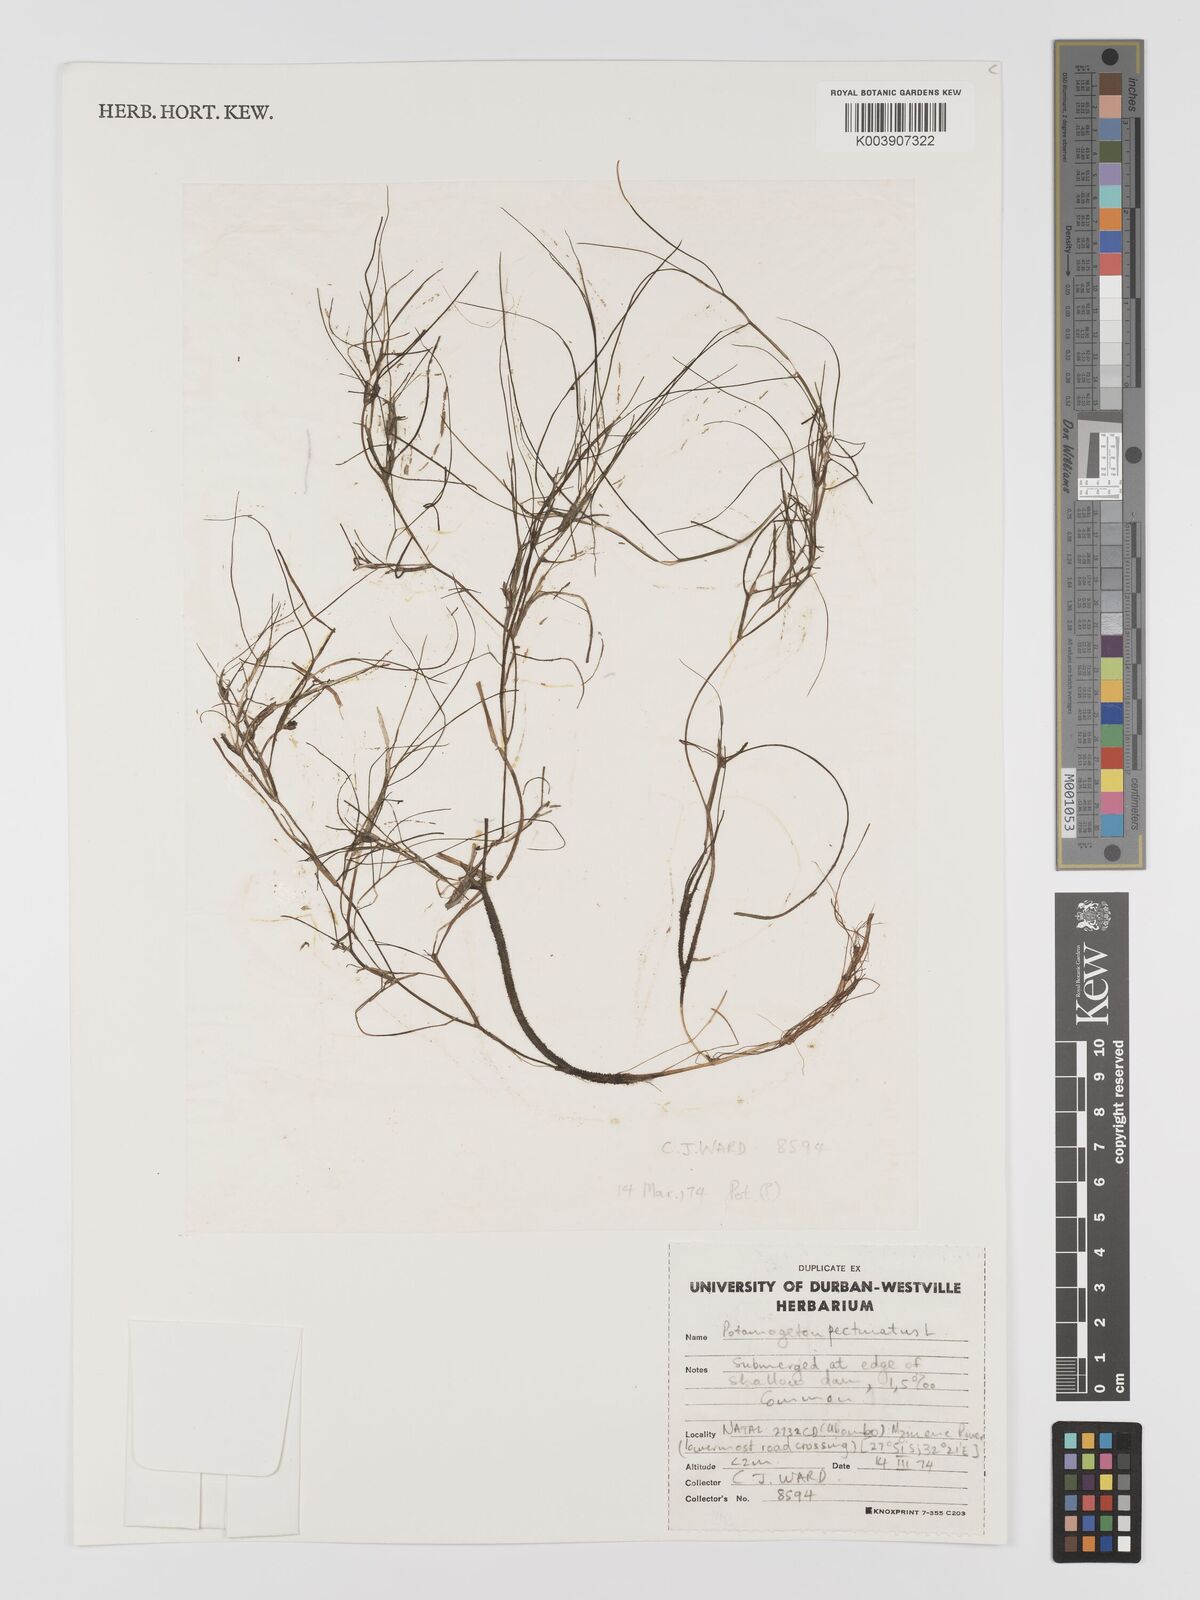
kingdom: Plantae
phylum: Tracheophyta
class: Liliopsida
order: Alismatales
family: Potamogetonaceae
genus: Stuckenia
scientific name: Stuckenia pectinata
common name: Sago pondweed
